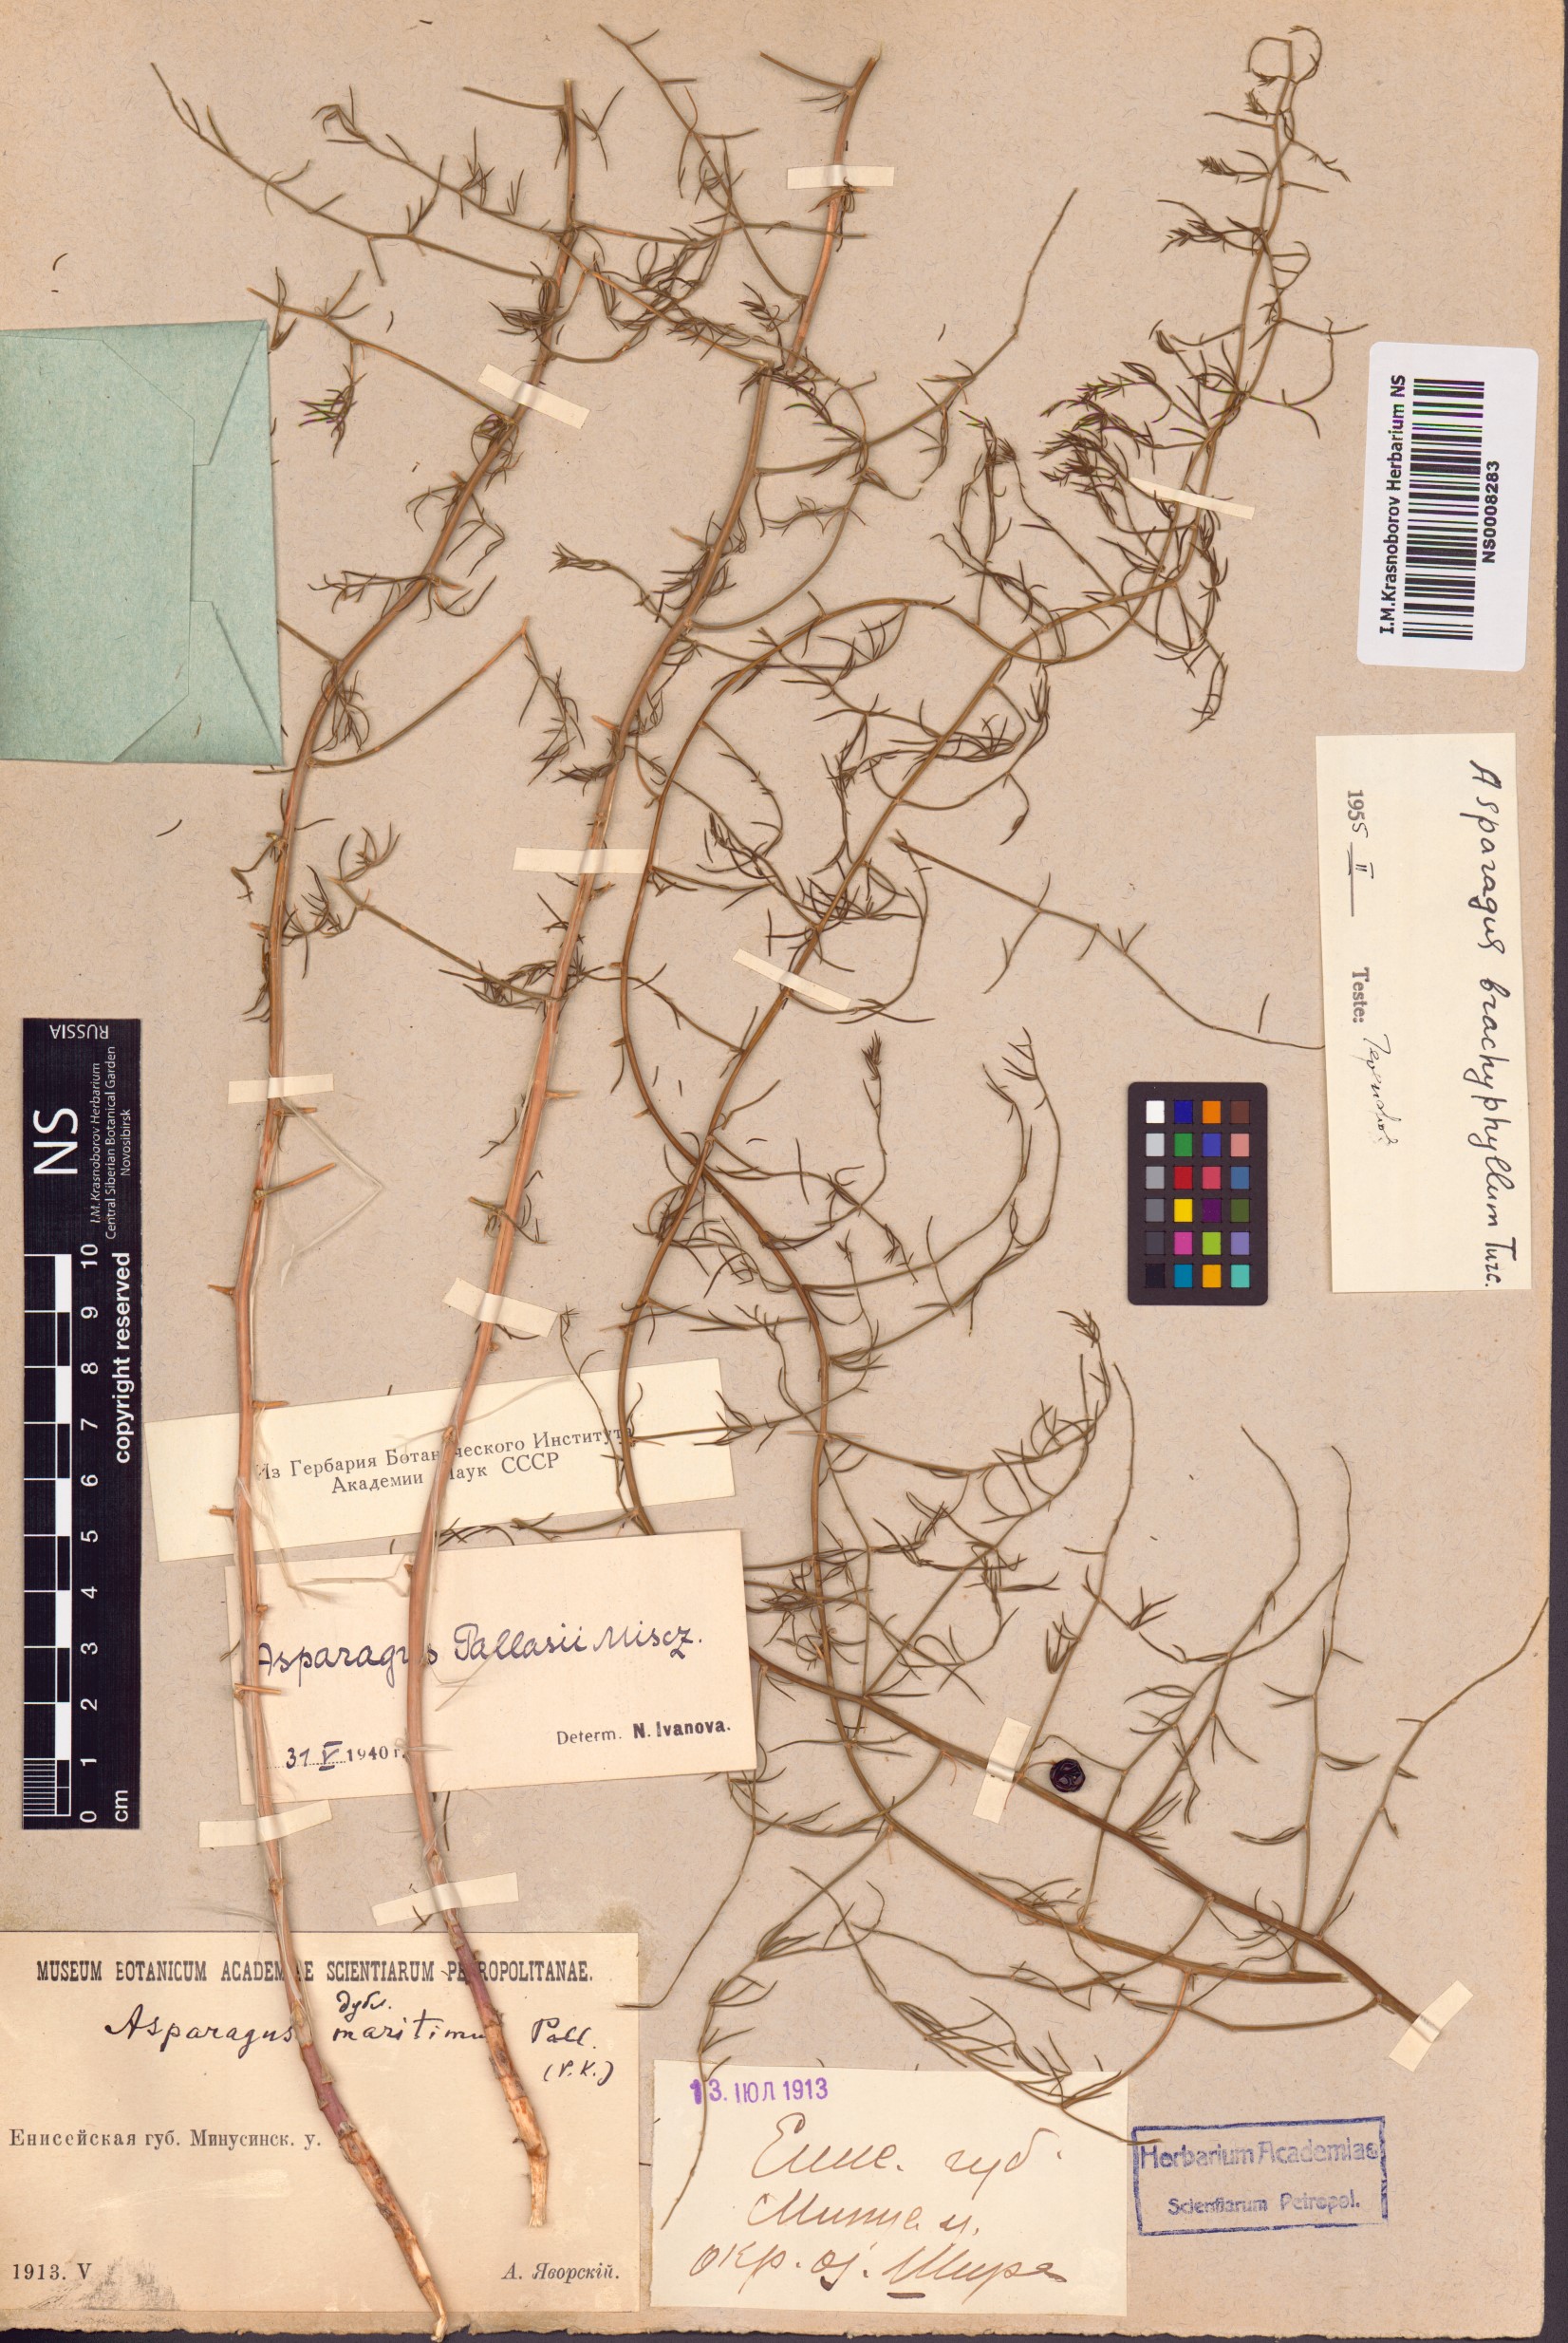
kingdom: Plantae
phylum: Tracheophyta
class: Liliopsida
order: Asparagales
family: Asparagaceae
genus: Asparagus
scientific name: Asparagus brachyphyllus
